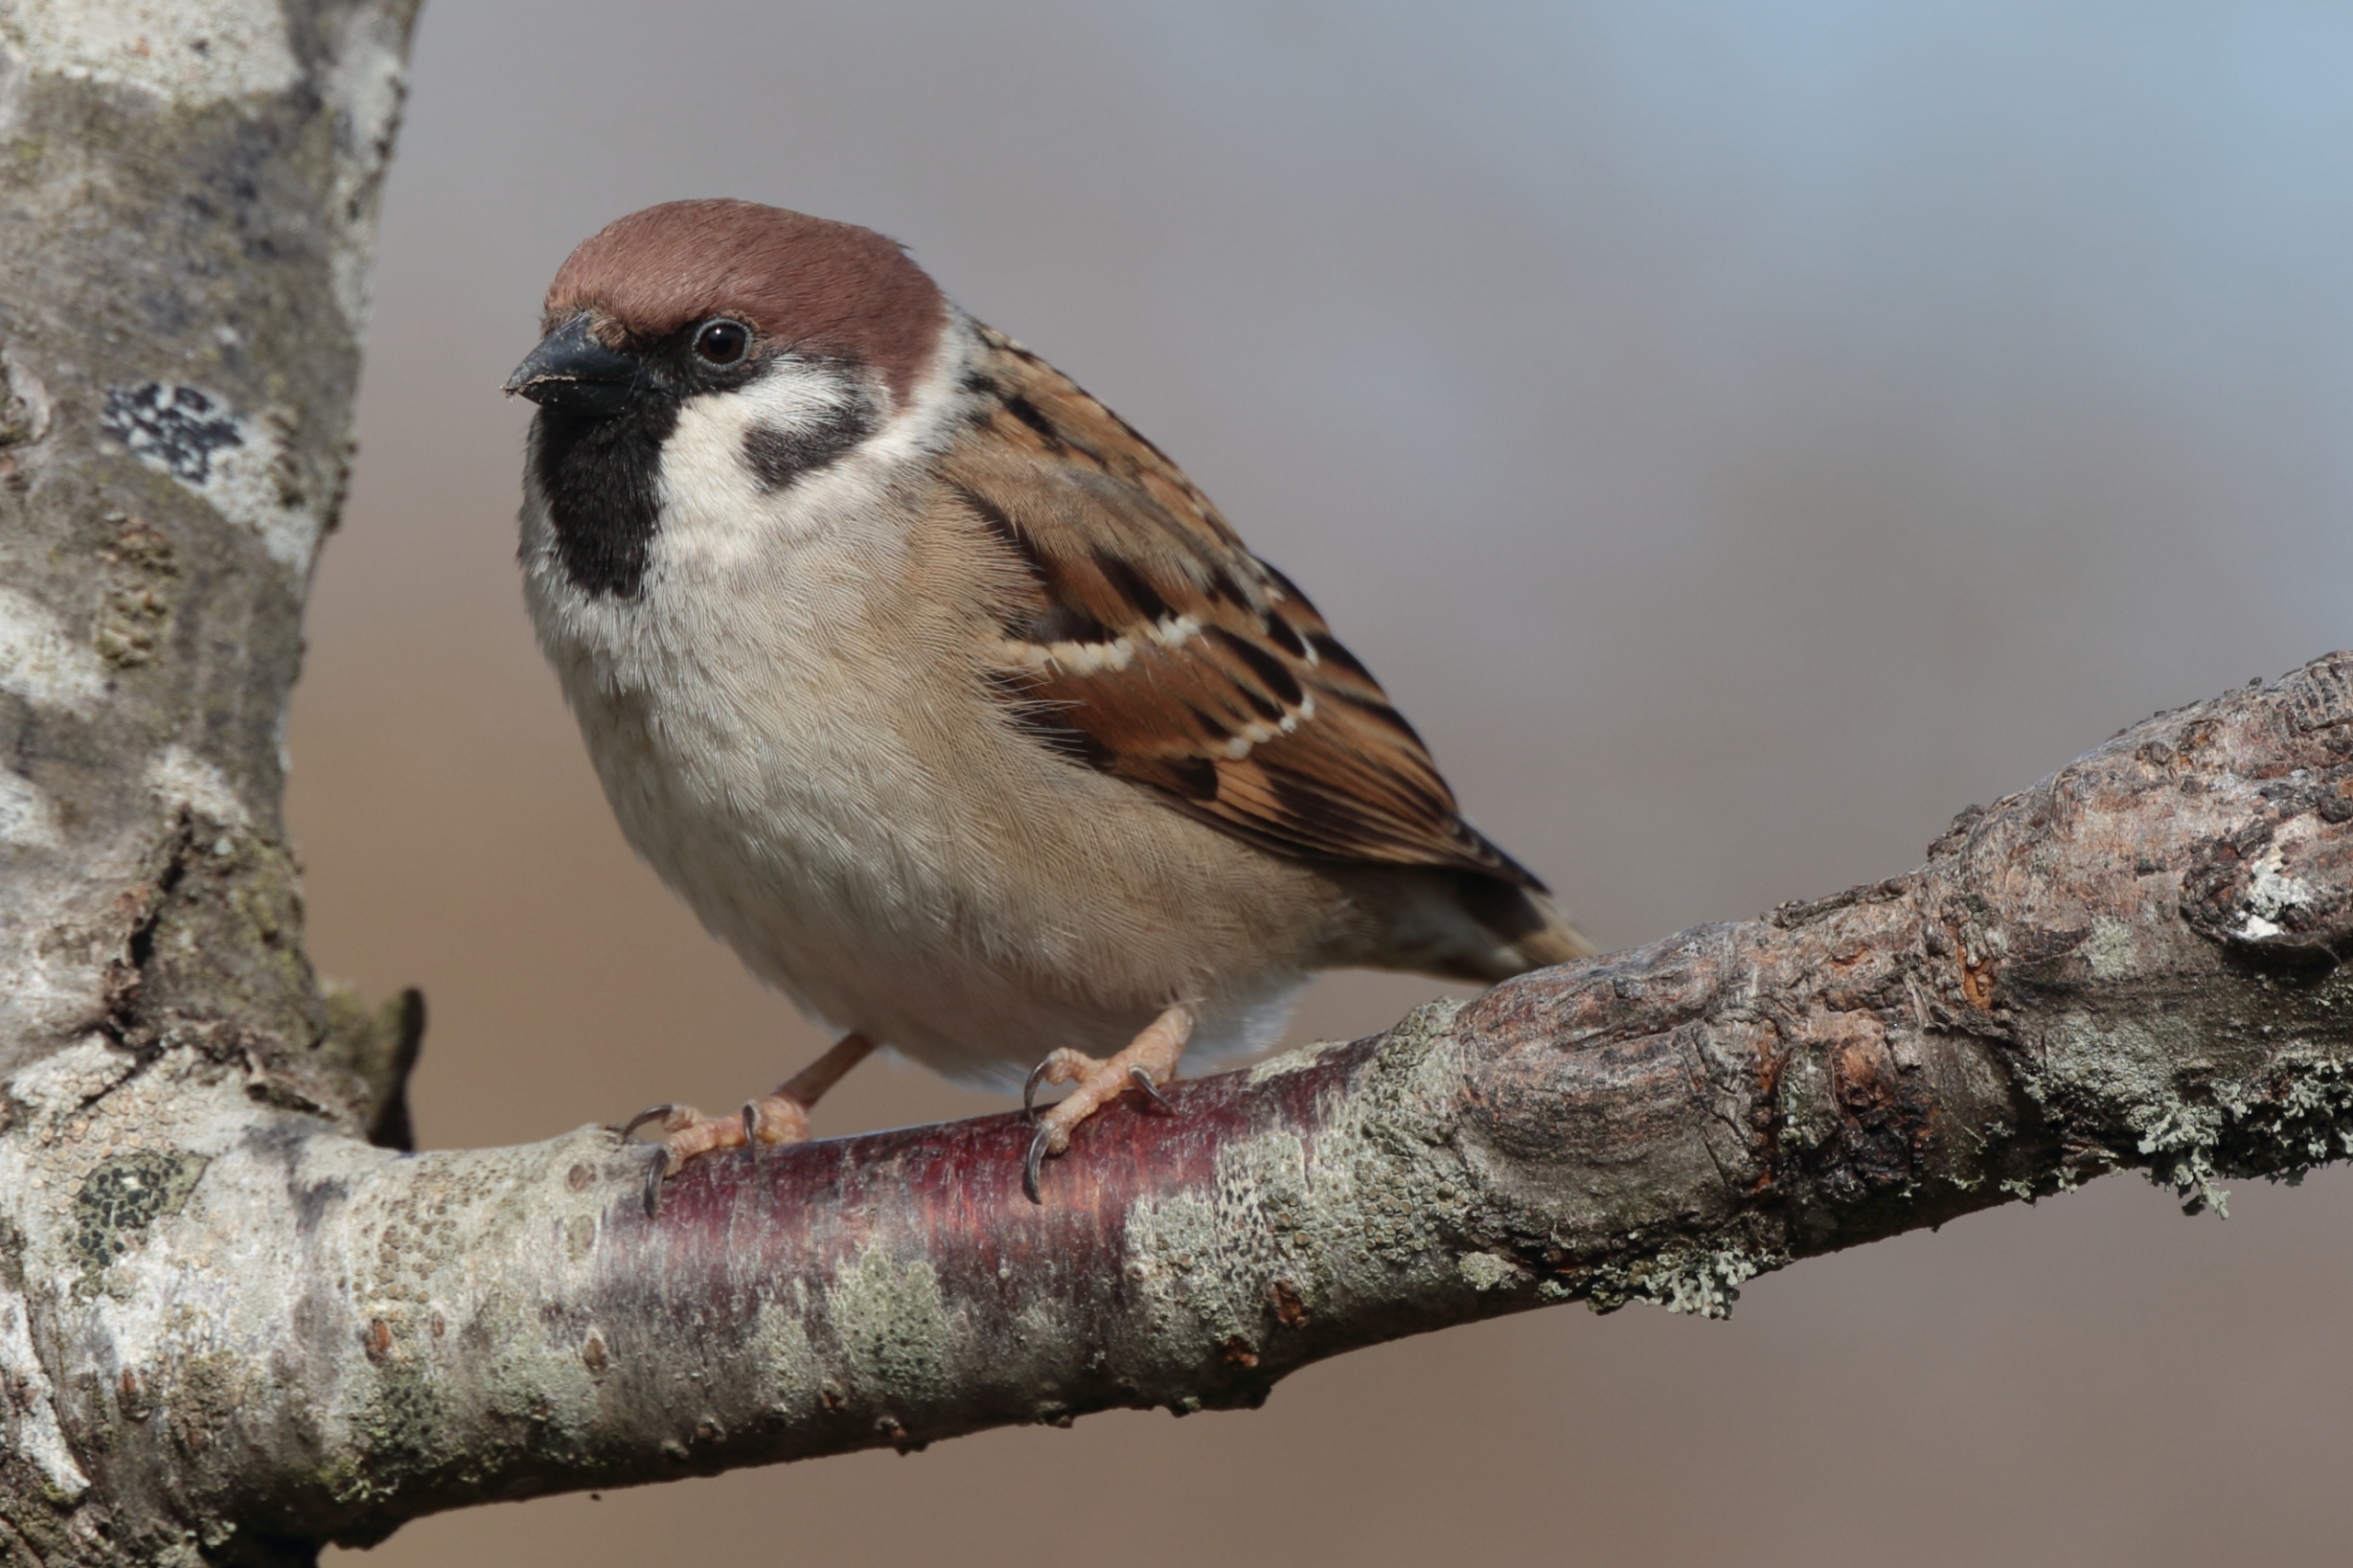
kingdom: Animalia
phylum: Chordata
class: Aves
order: Passeriformes
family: Passeridae
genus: Passer
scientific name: Passer montanus
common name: Skovspurv
